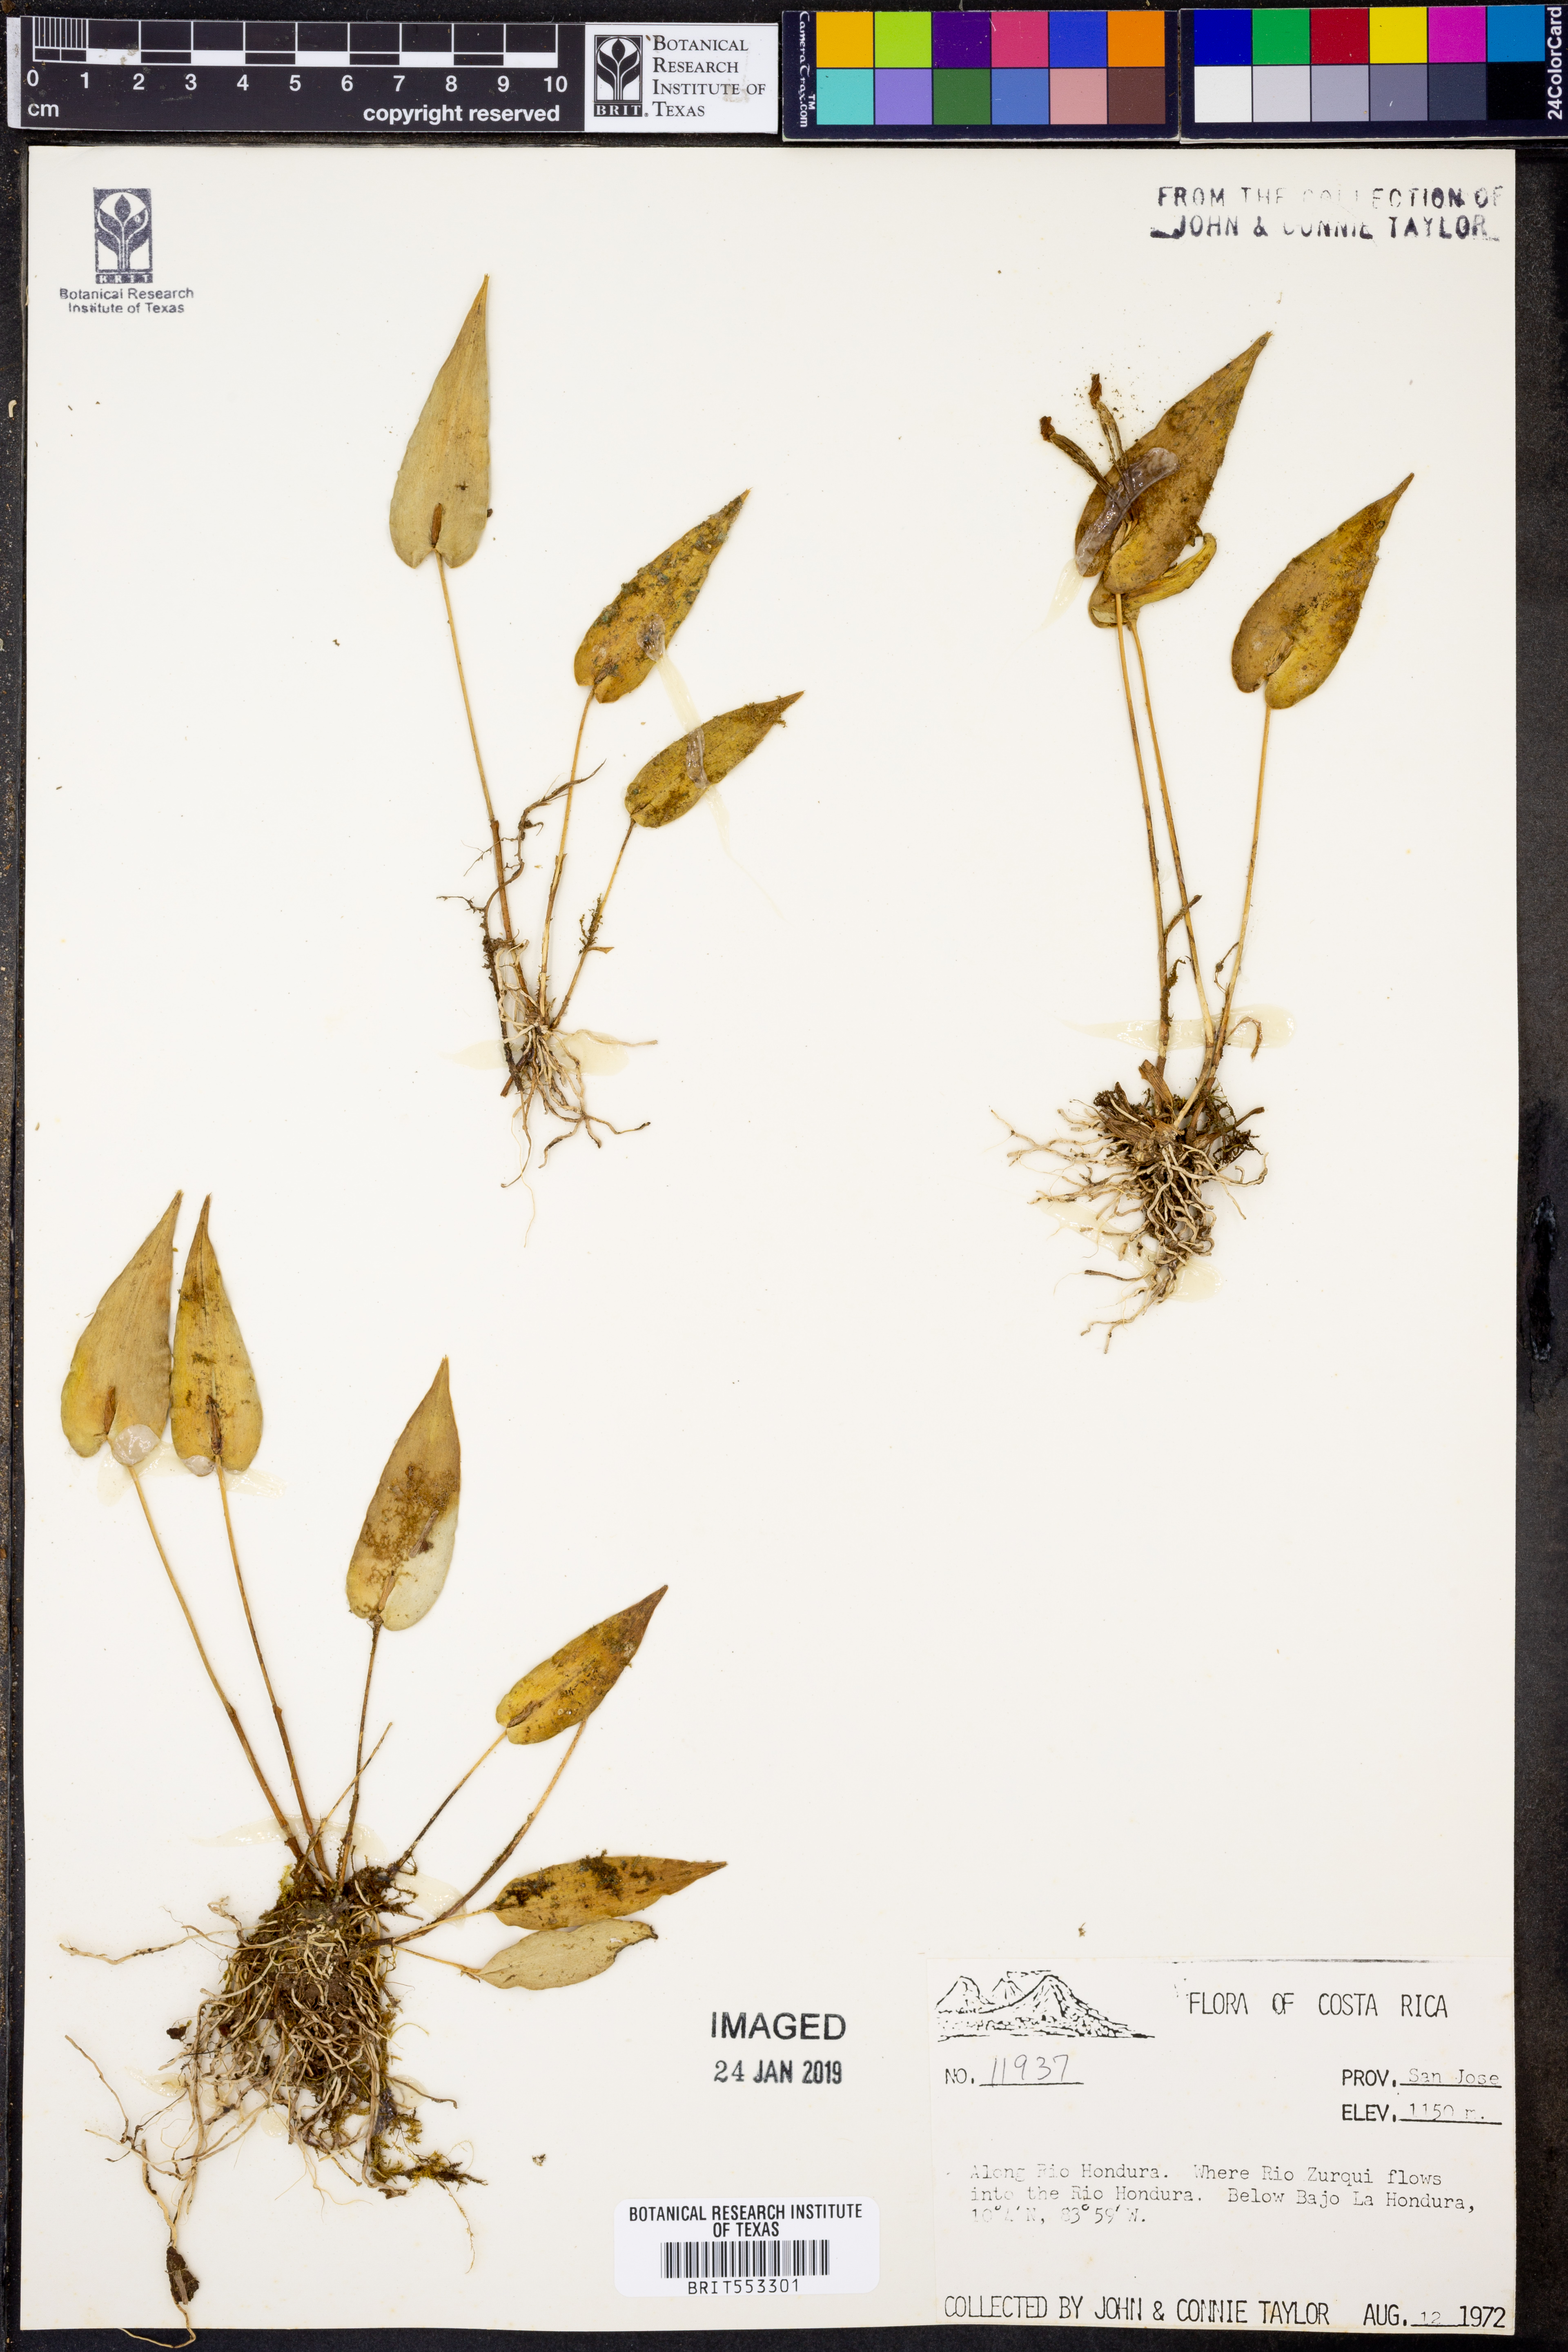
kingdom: Plantae
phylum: Tracheophyta
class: Liliopsida
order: Asparagales
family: Orchidaceae
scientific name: Orchidaceae
